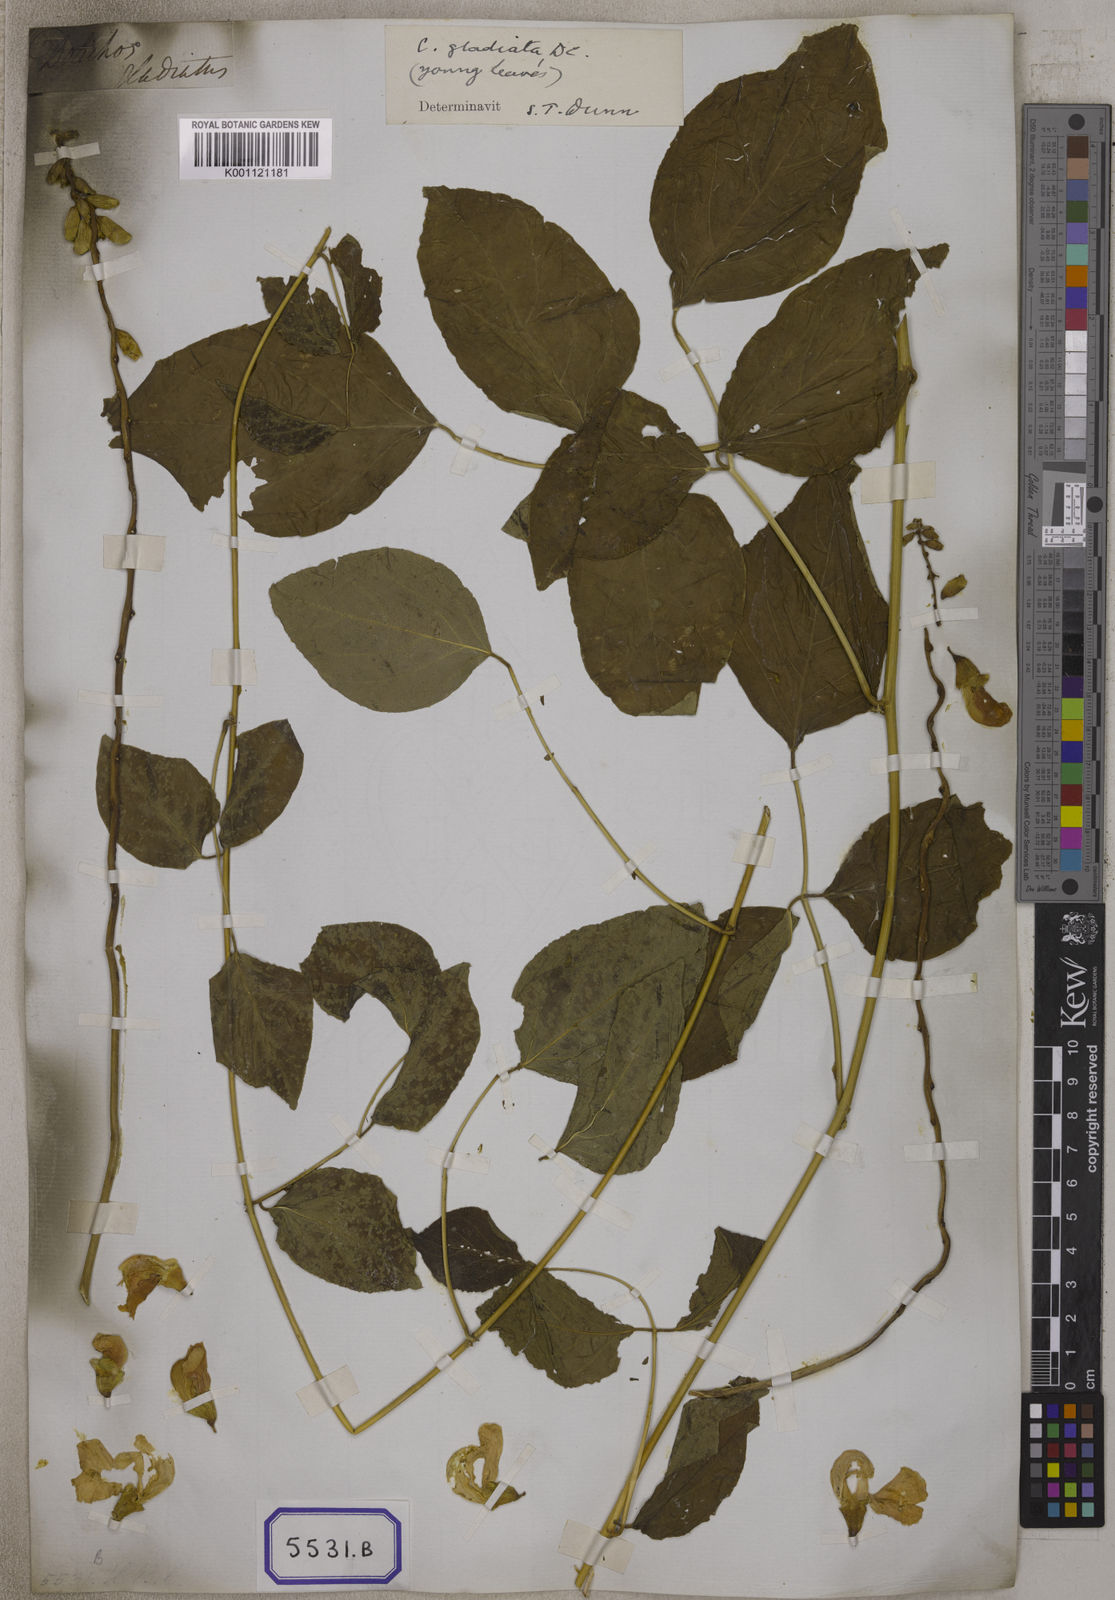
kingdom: Plantae
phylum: Tracheophyta
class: Magnoliopsida
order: Fabales
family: Fabaceae
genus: Canavalia
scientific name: Canavalia gladiata
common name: Scimitar-bean
